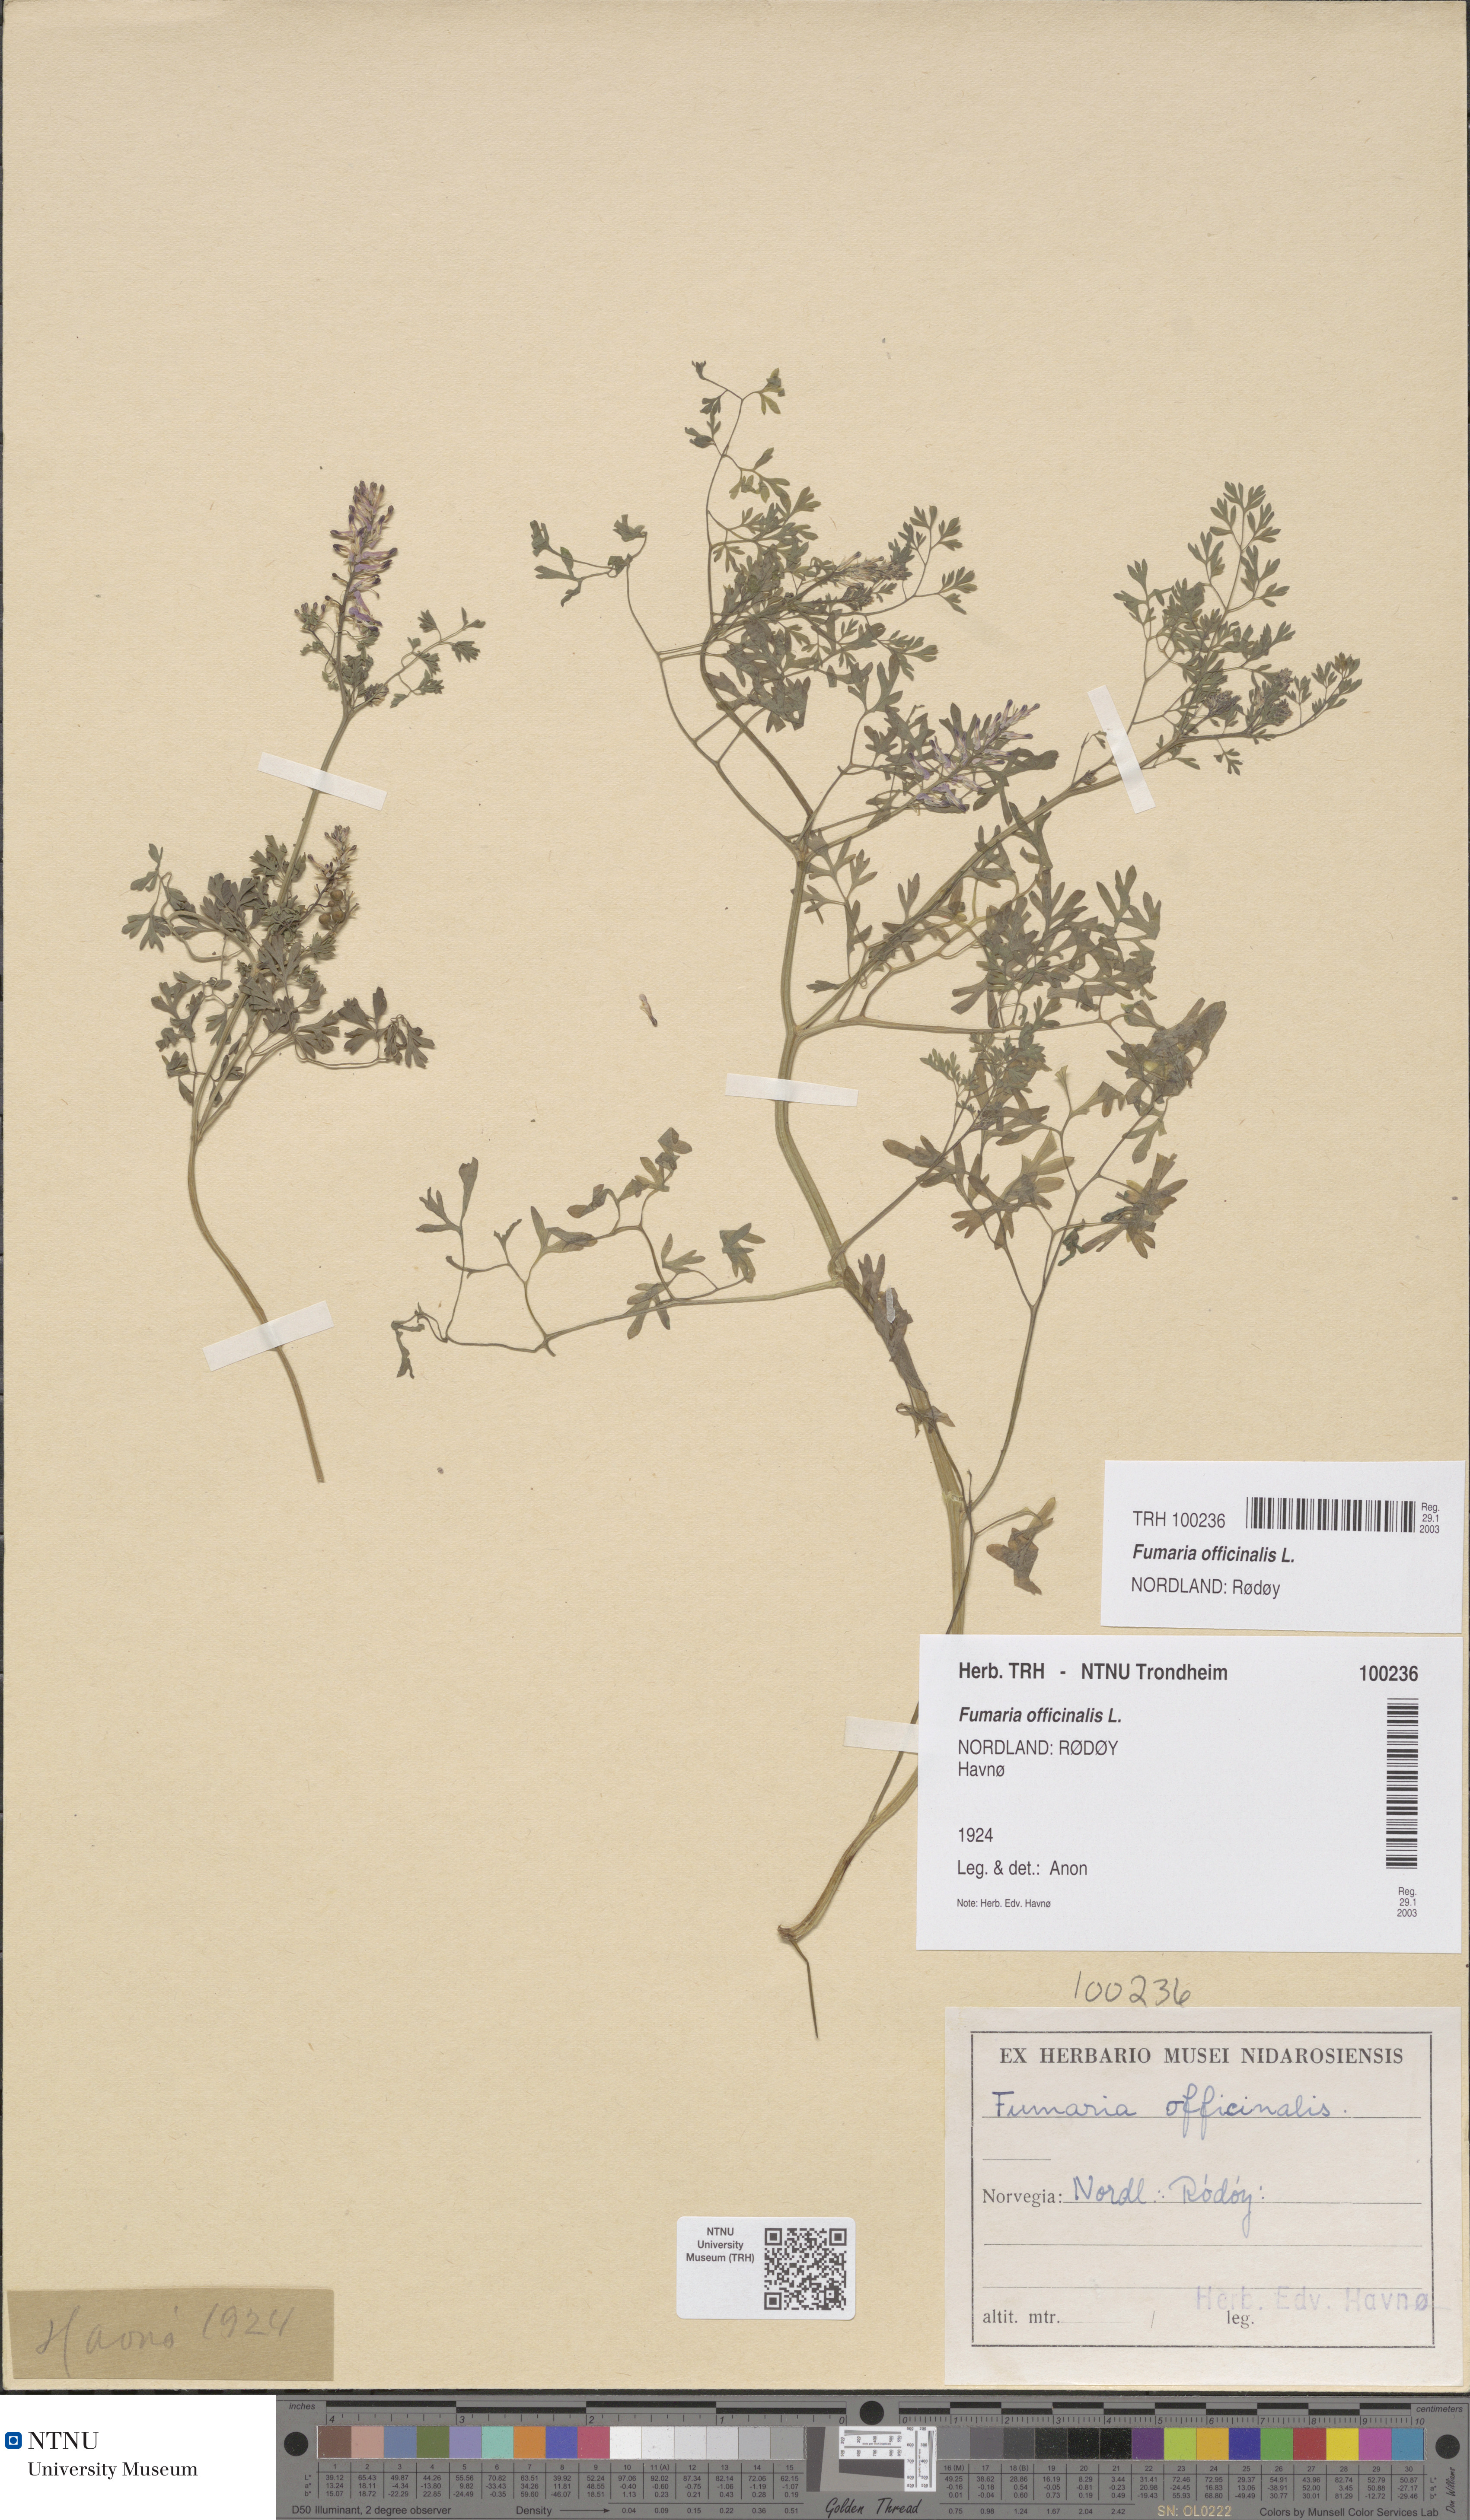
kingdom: Plantae
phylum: Tracheophyta
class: Magnoliopsida
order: Ranunculales
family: Papaveraceae
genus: Fumaria
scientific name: Fumaria officinalis
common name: Common fumitory
